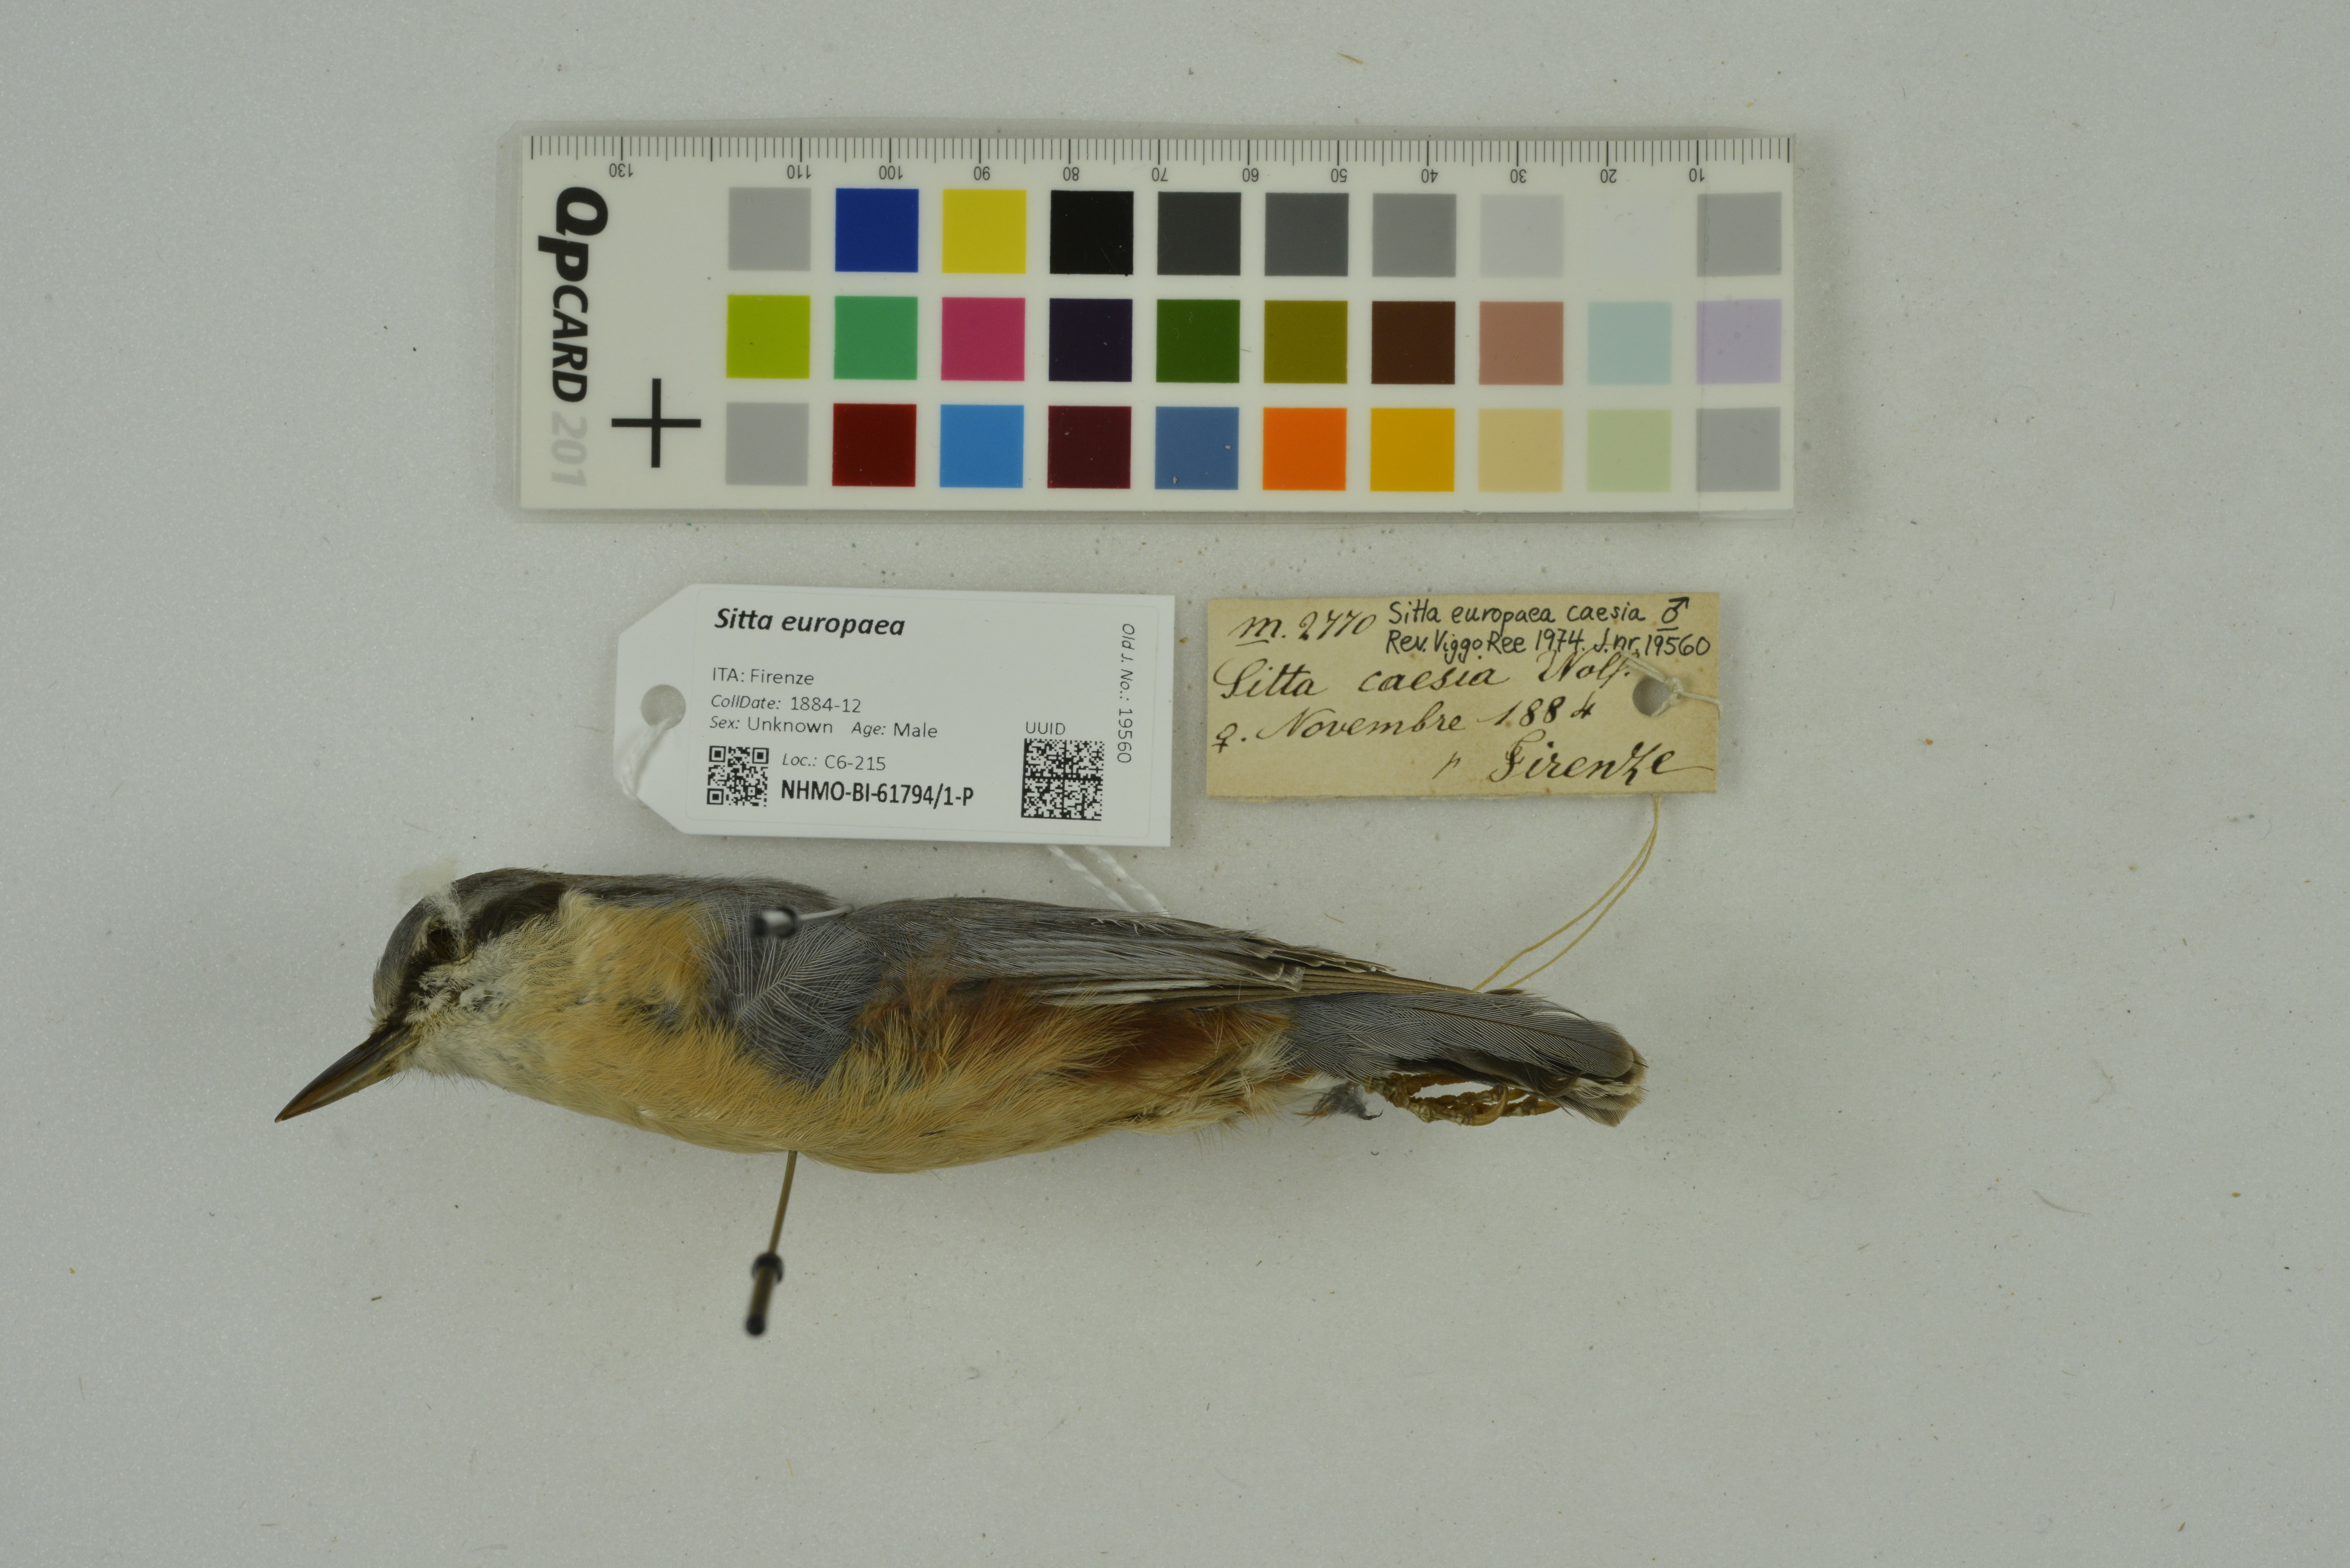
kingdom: Animalia
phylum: Chordata
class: Aves
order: Passeriformes
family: Sittidae
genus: Sitta
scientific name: Sitta europaea
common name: Eurasian nuthatch
